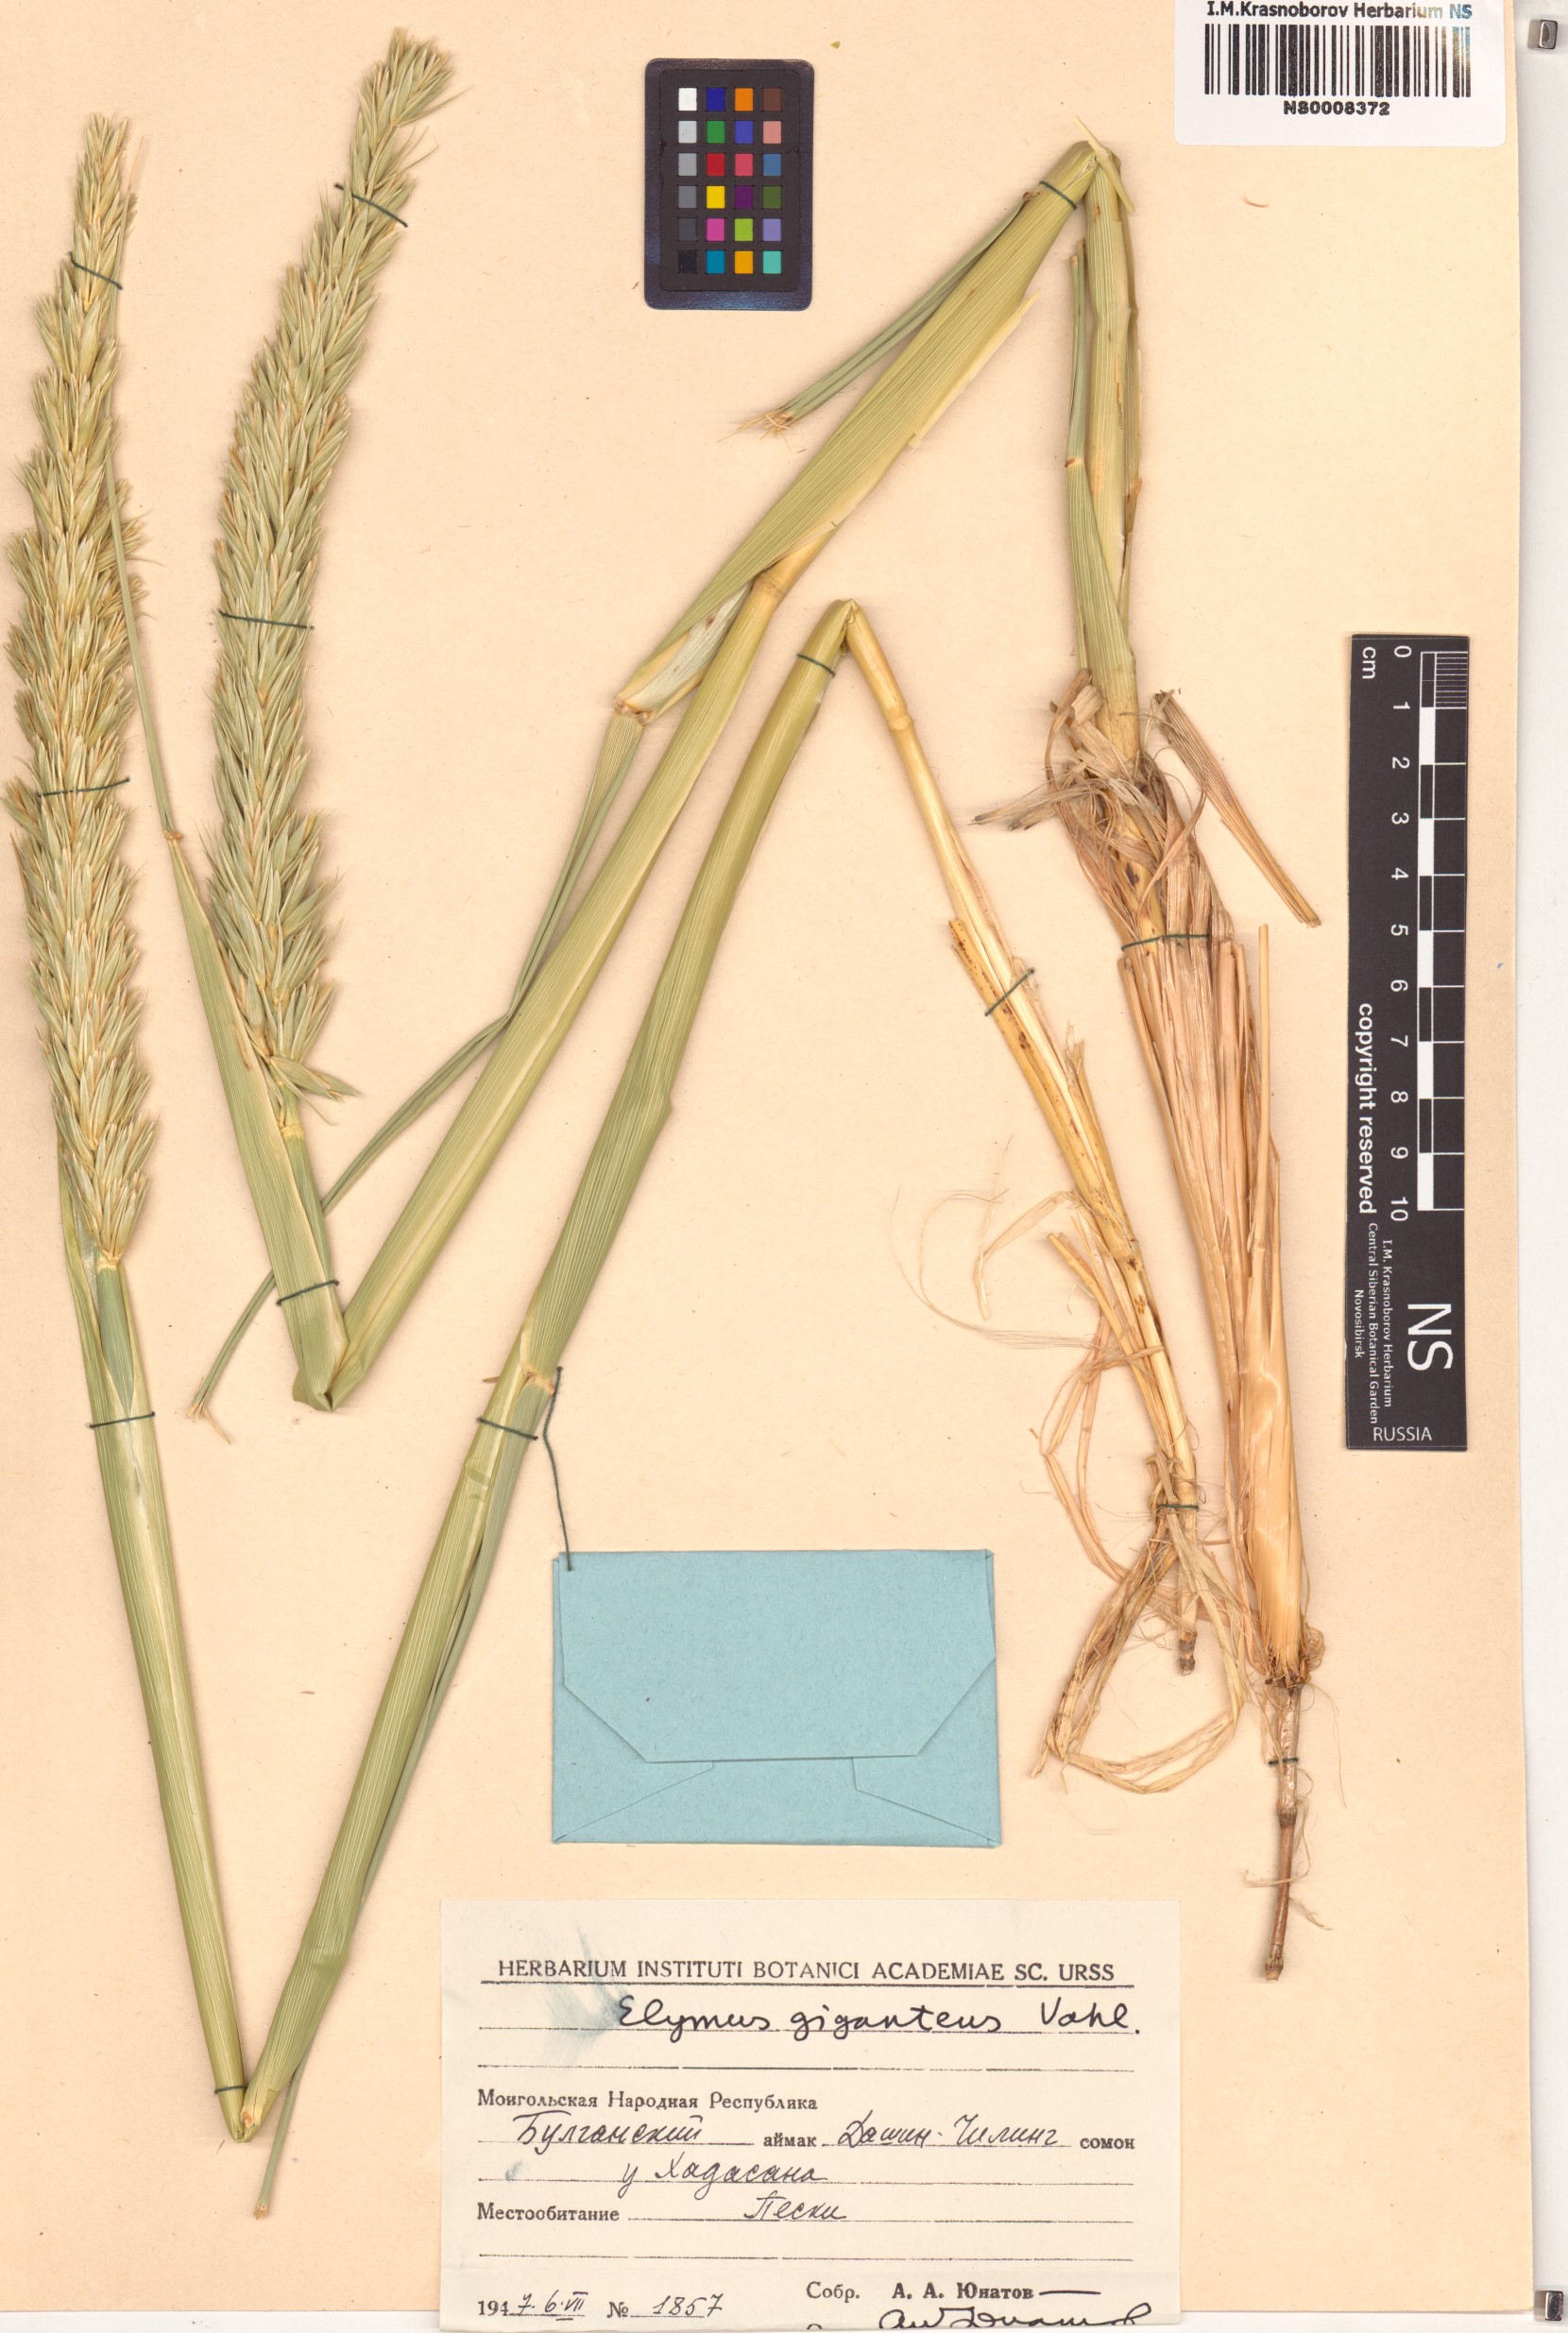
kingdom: Plantae
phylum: Tracheophyta
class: Liliopsida
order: Poales
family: Poaceae
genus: Leymus
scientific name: Leymus racemosus
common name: Mammoth wildrye
